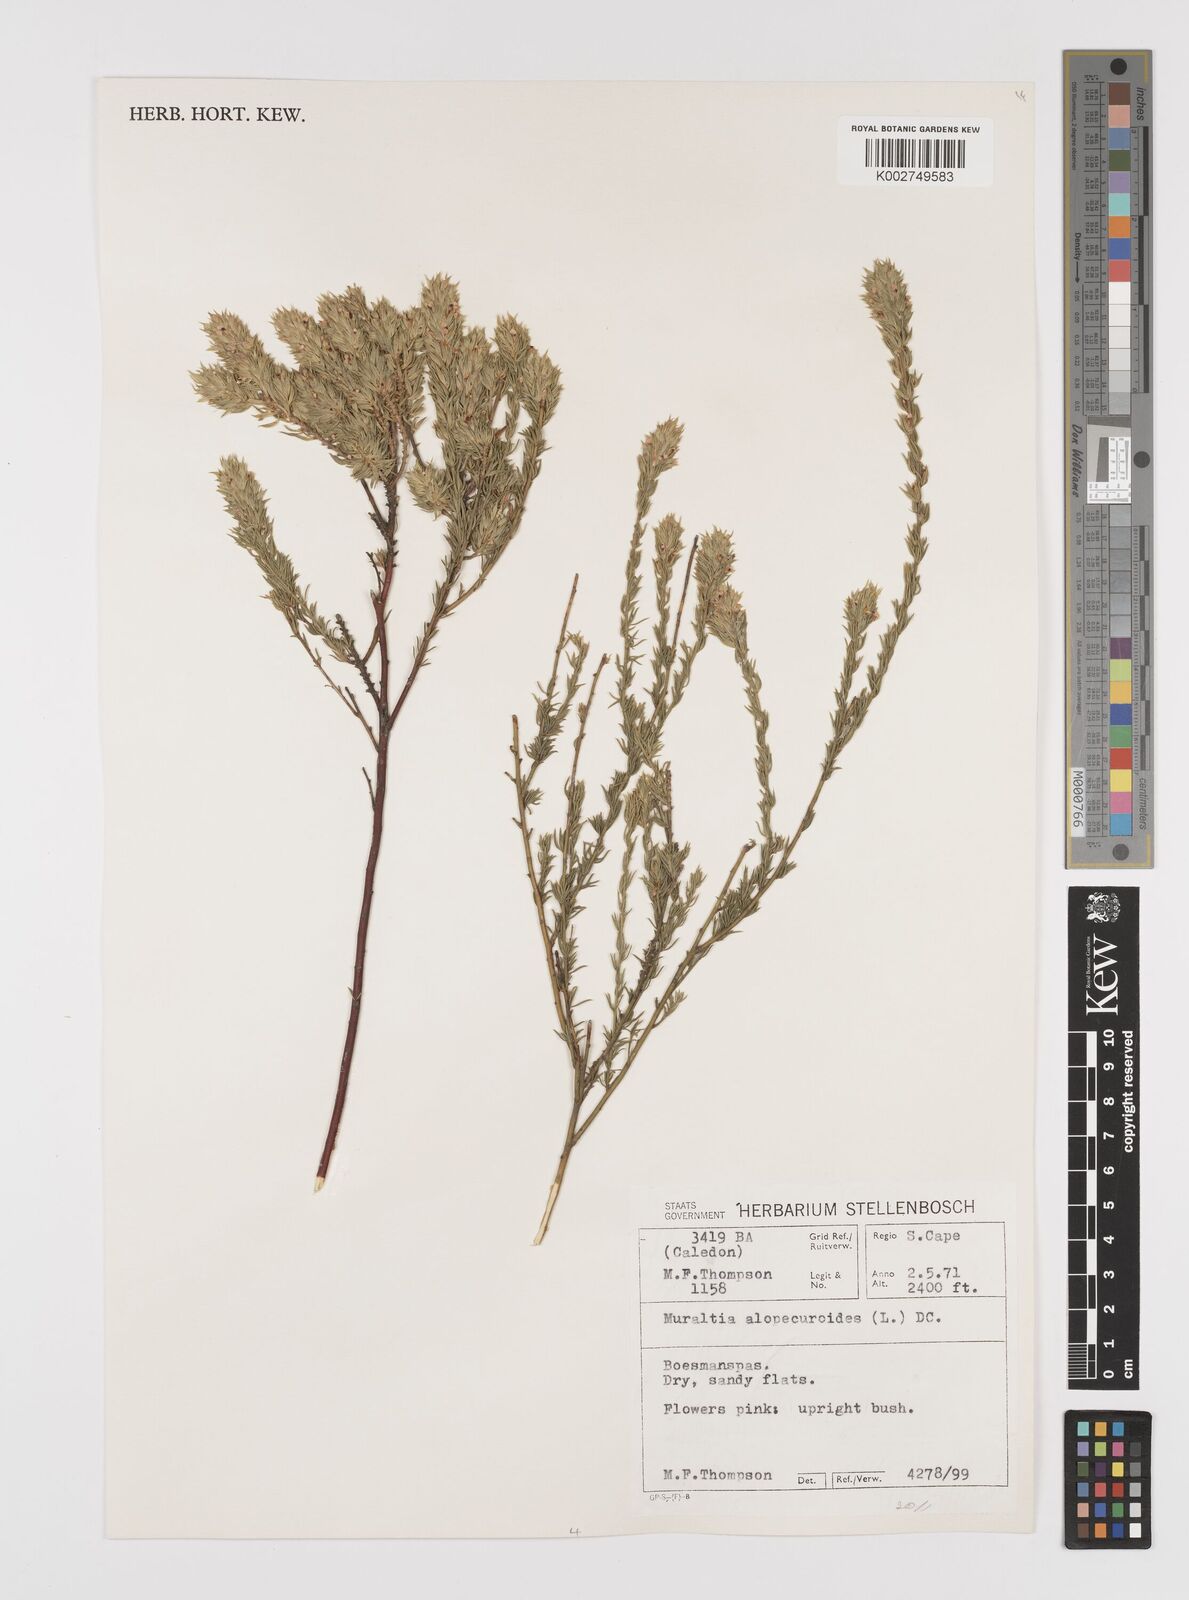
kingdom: Plantae
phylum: Tracheophyta
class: Magnoliopsida
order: Fabales
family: Polygalaceae
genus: Muraltia
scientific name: Muraltia alopecuroides
